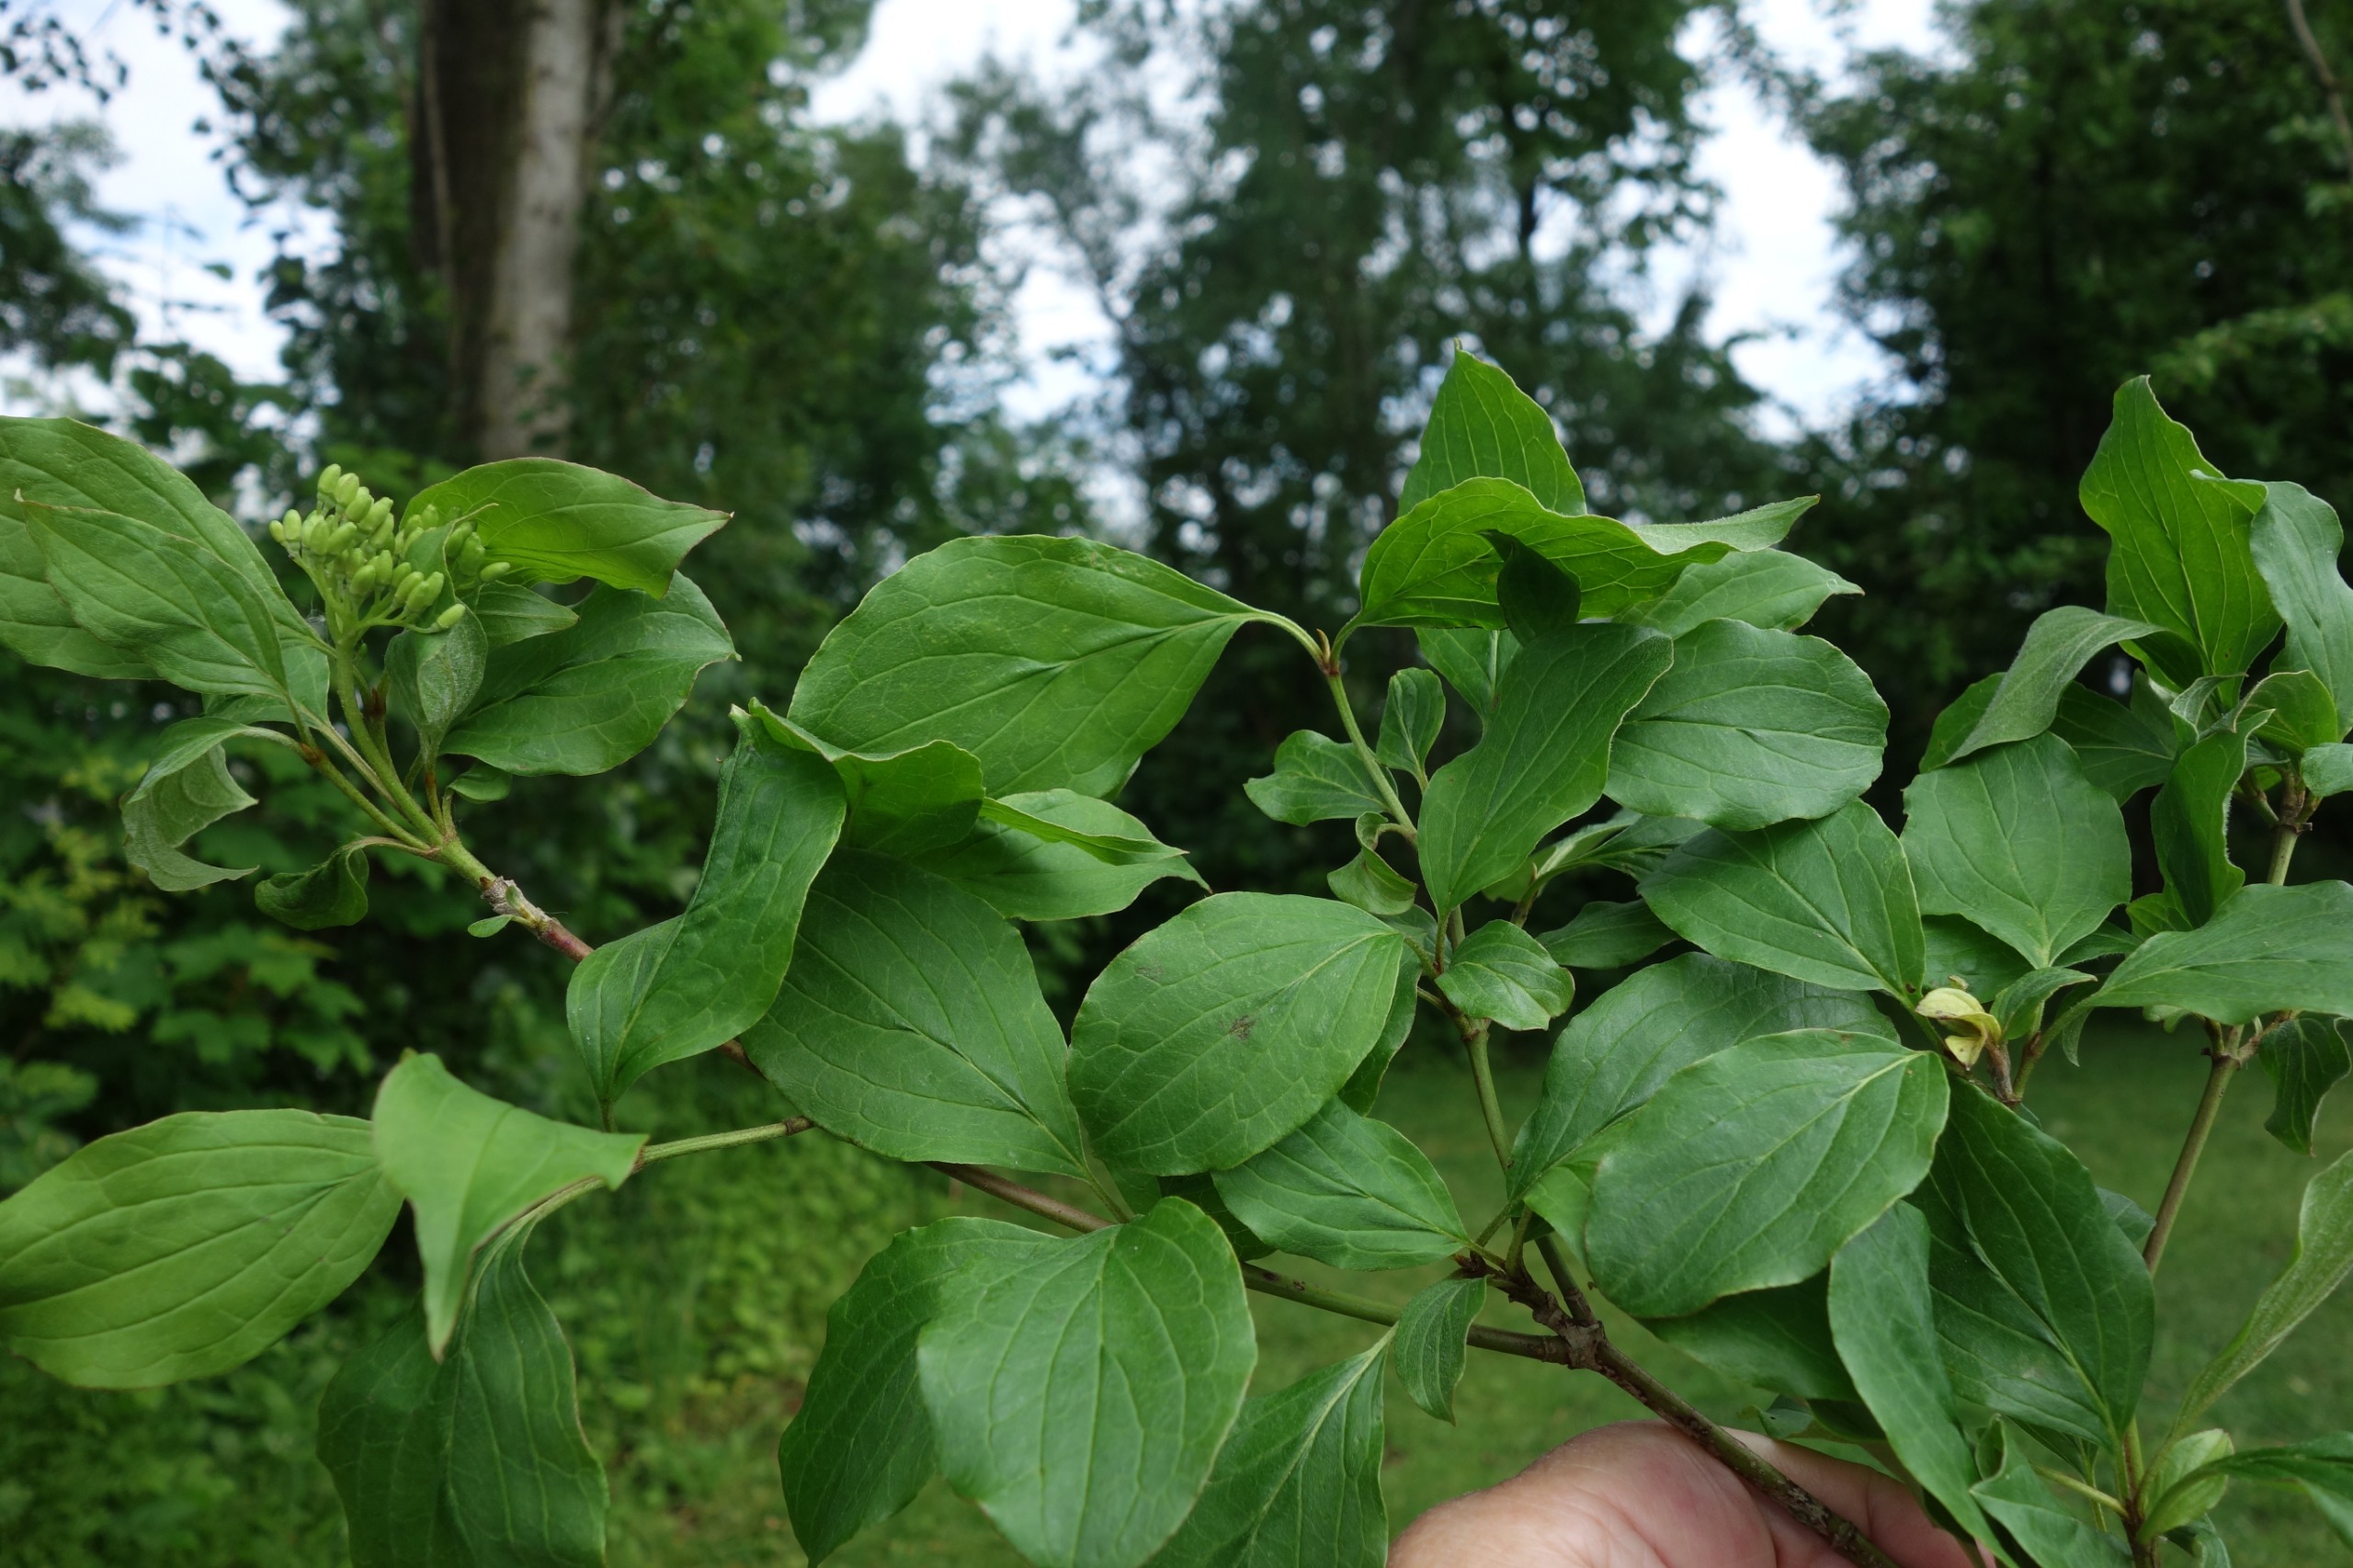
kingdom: Plantae
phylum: Tracheophyta
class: Magnoliopsida
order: Cornales
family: Cornaceae
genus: Cornus
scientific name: Cornus sanguinea
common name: Rød kornel
